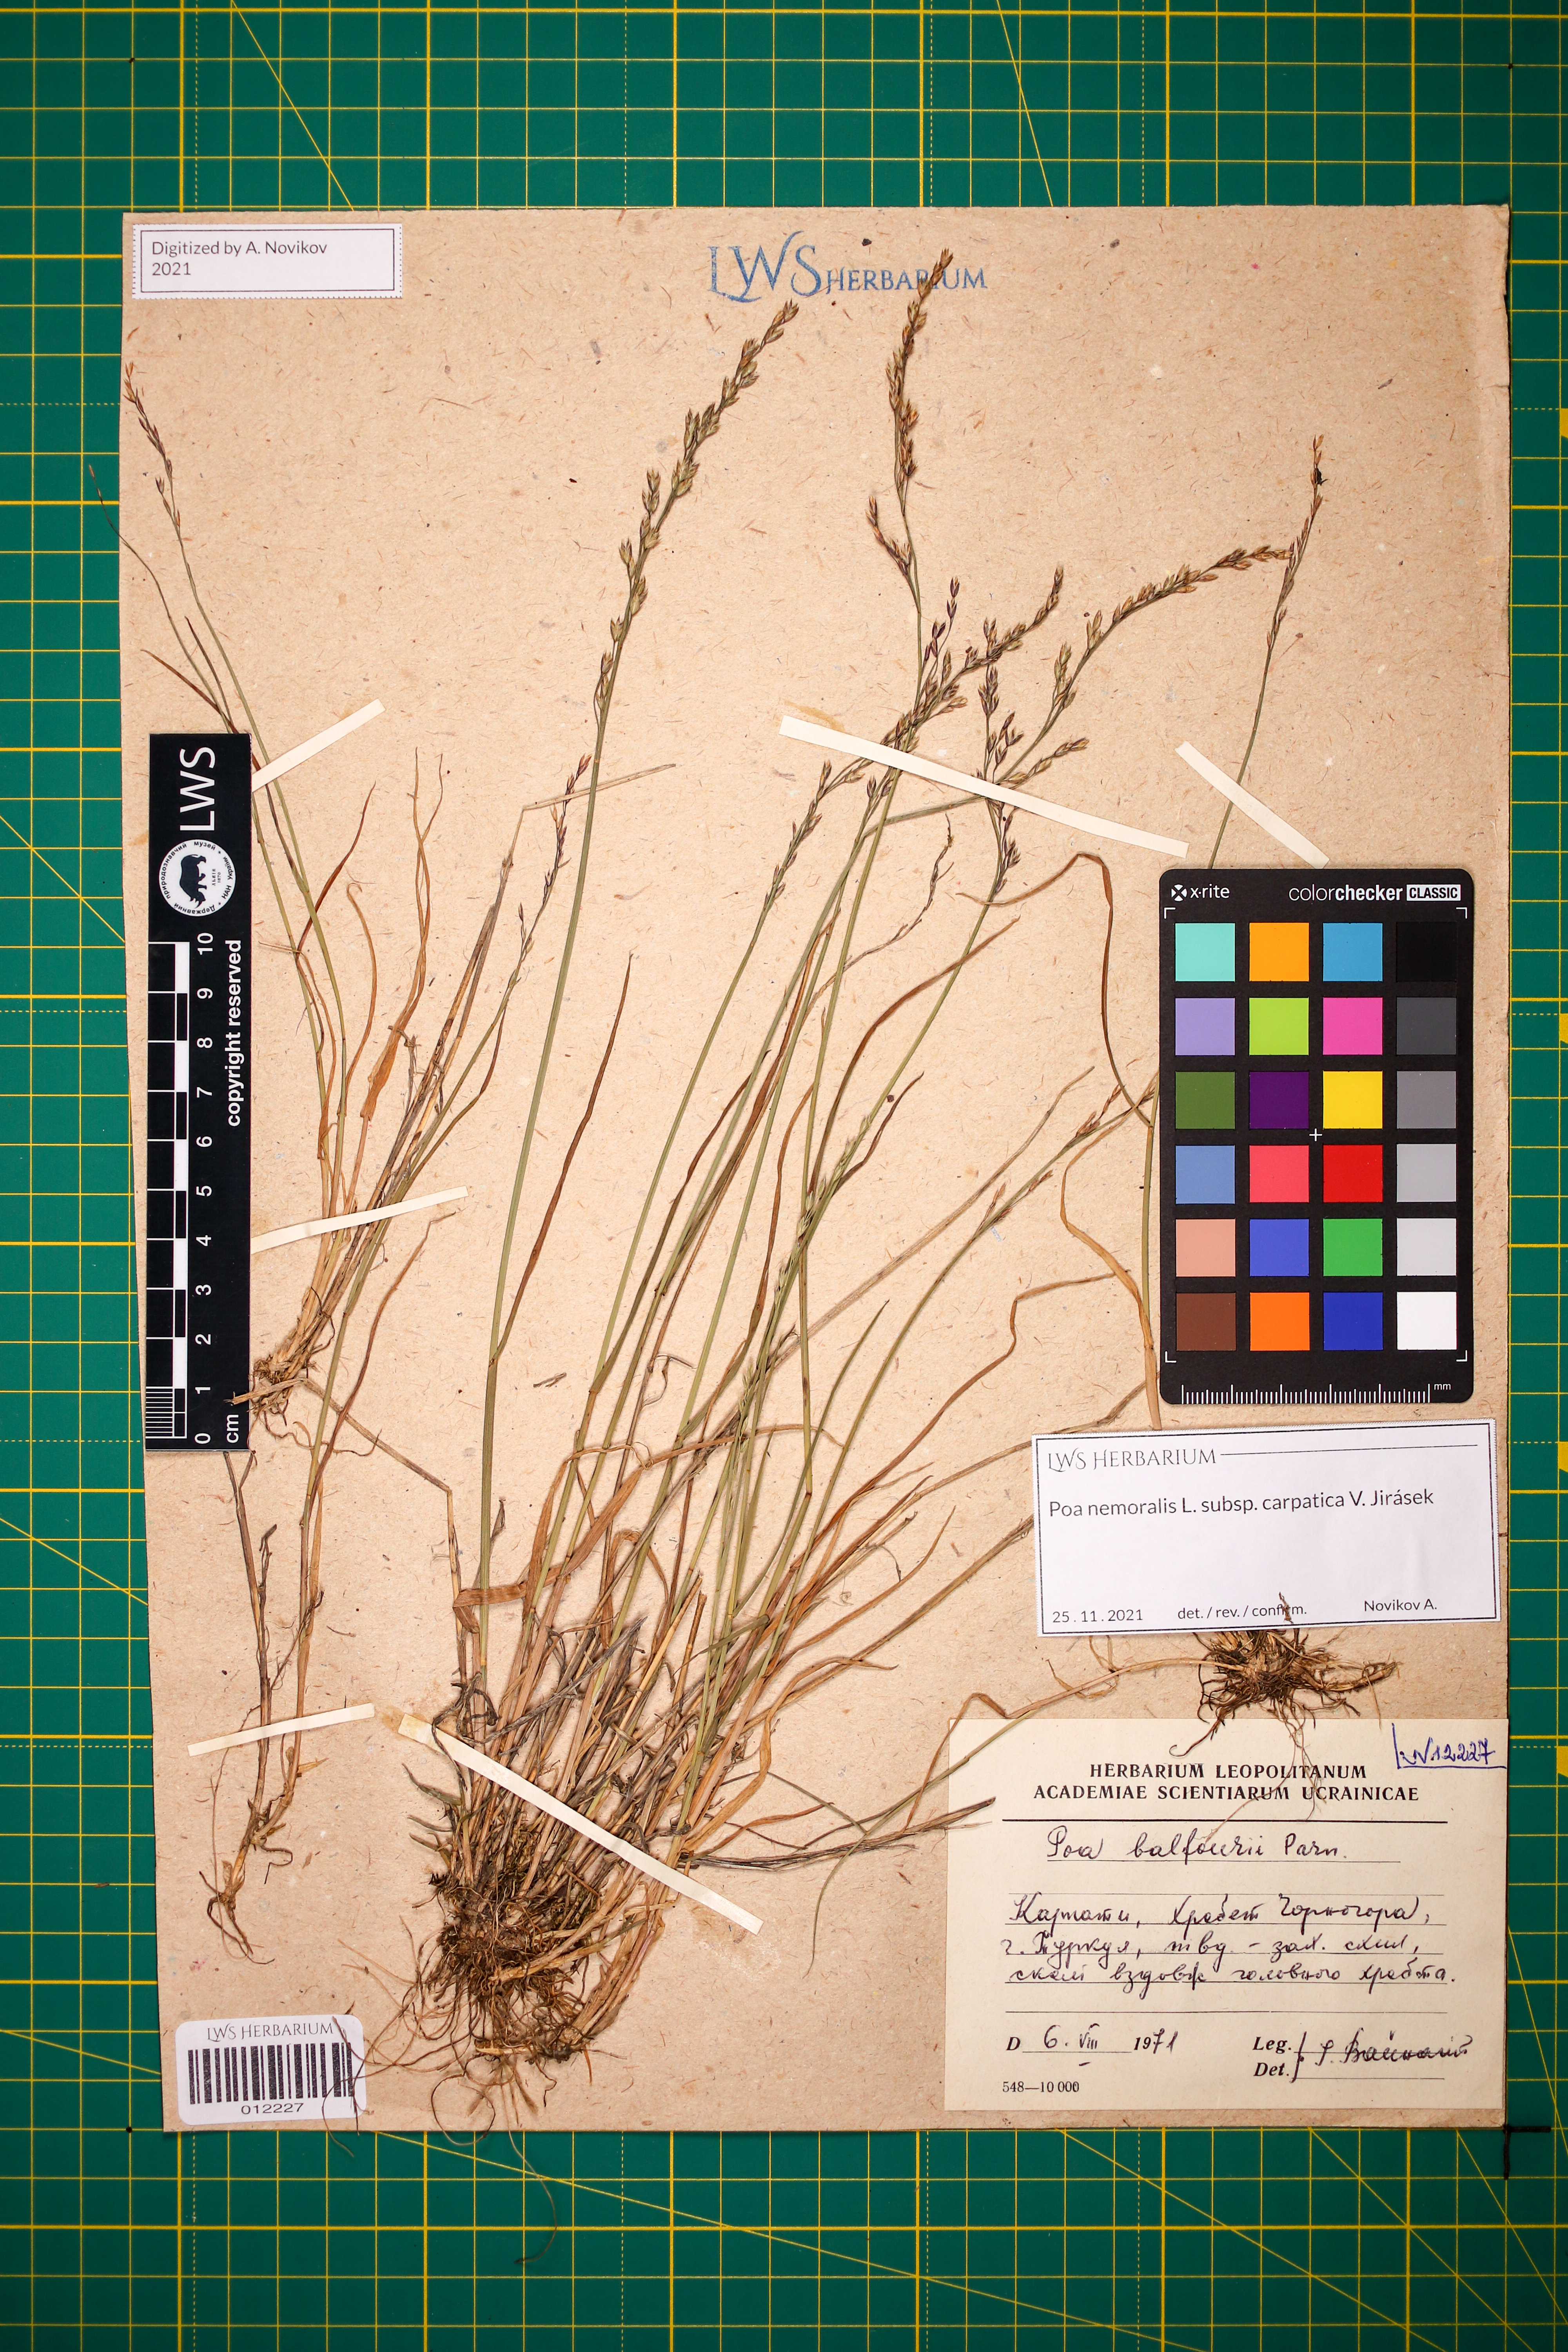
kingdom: Plantae
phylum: Tracheophyta
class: Liliopsida
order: Poales
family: Poaceae
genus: Poa
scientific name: Poa carpatica
